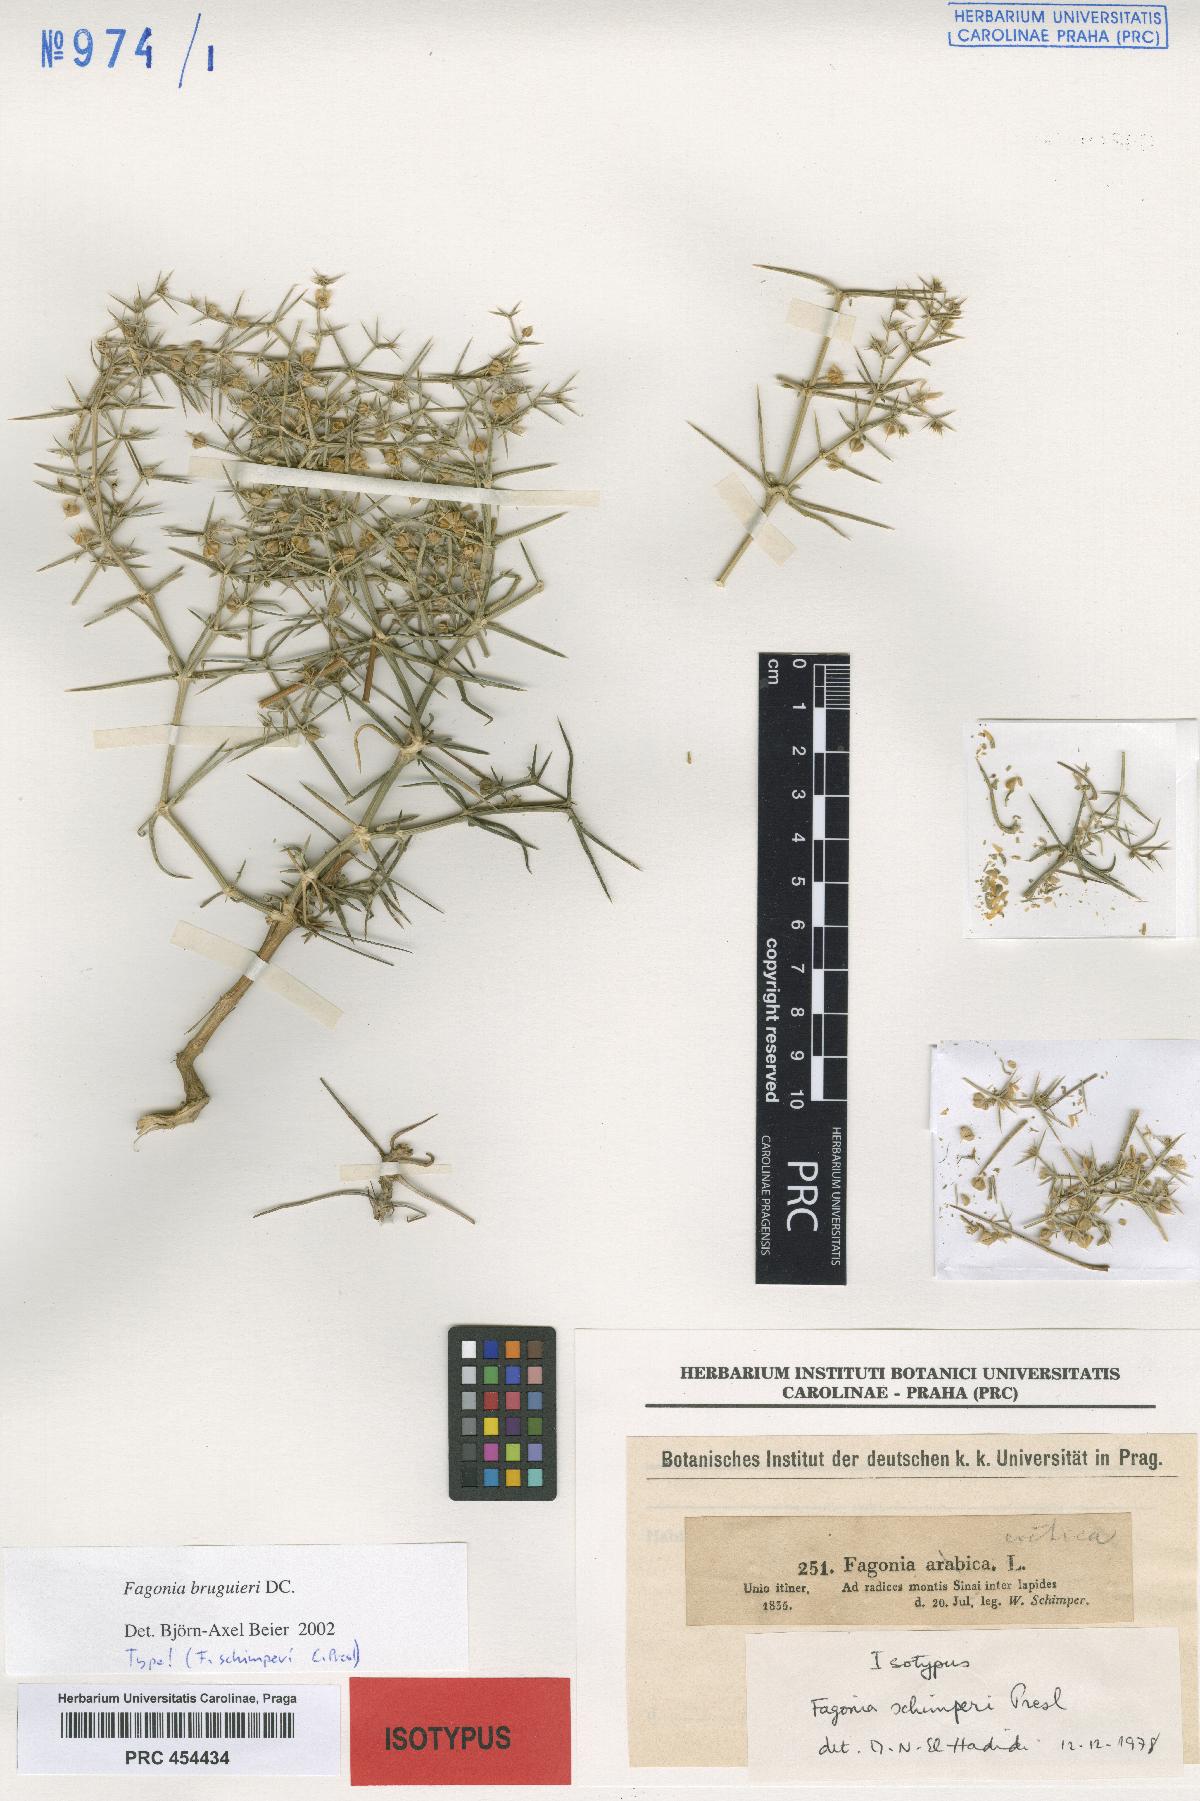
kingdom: Plantae
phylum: Tracheophyta
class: Magnoliopsida
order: Zygophyllales
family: Zygophyllaceae
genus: Fagonia
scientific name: Fagonia bruguieri
